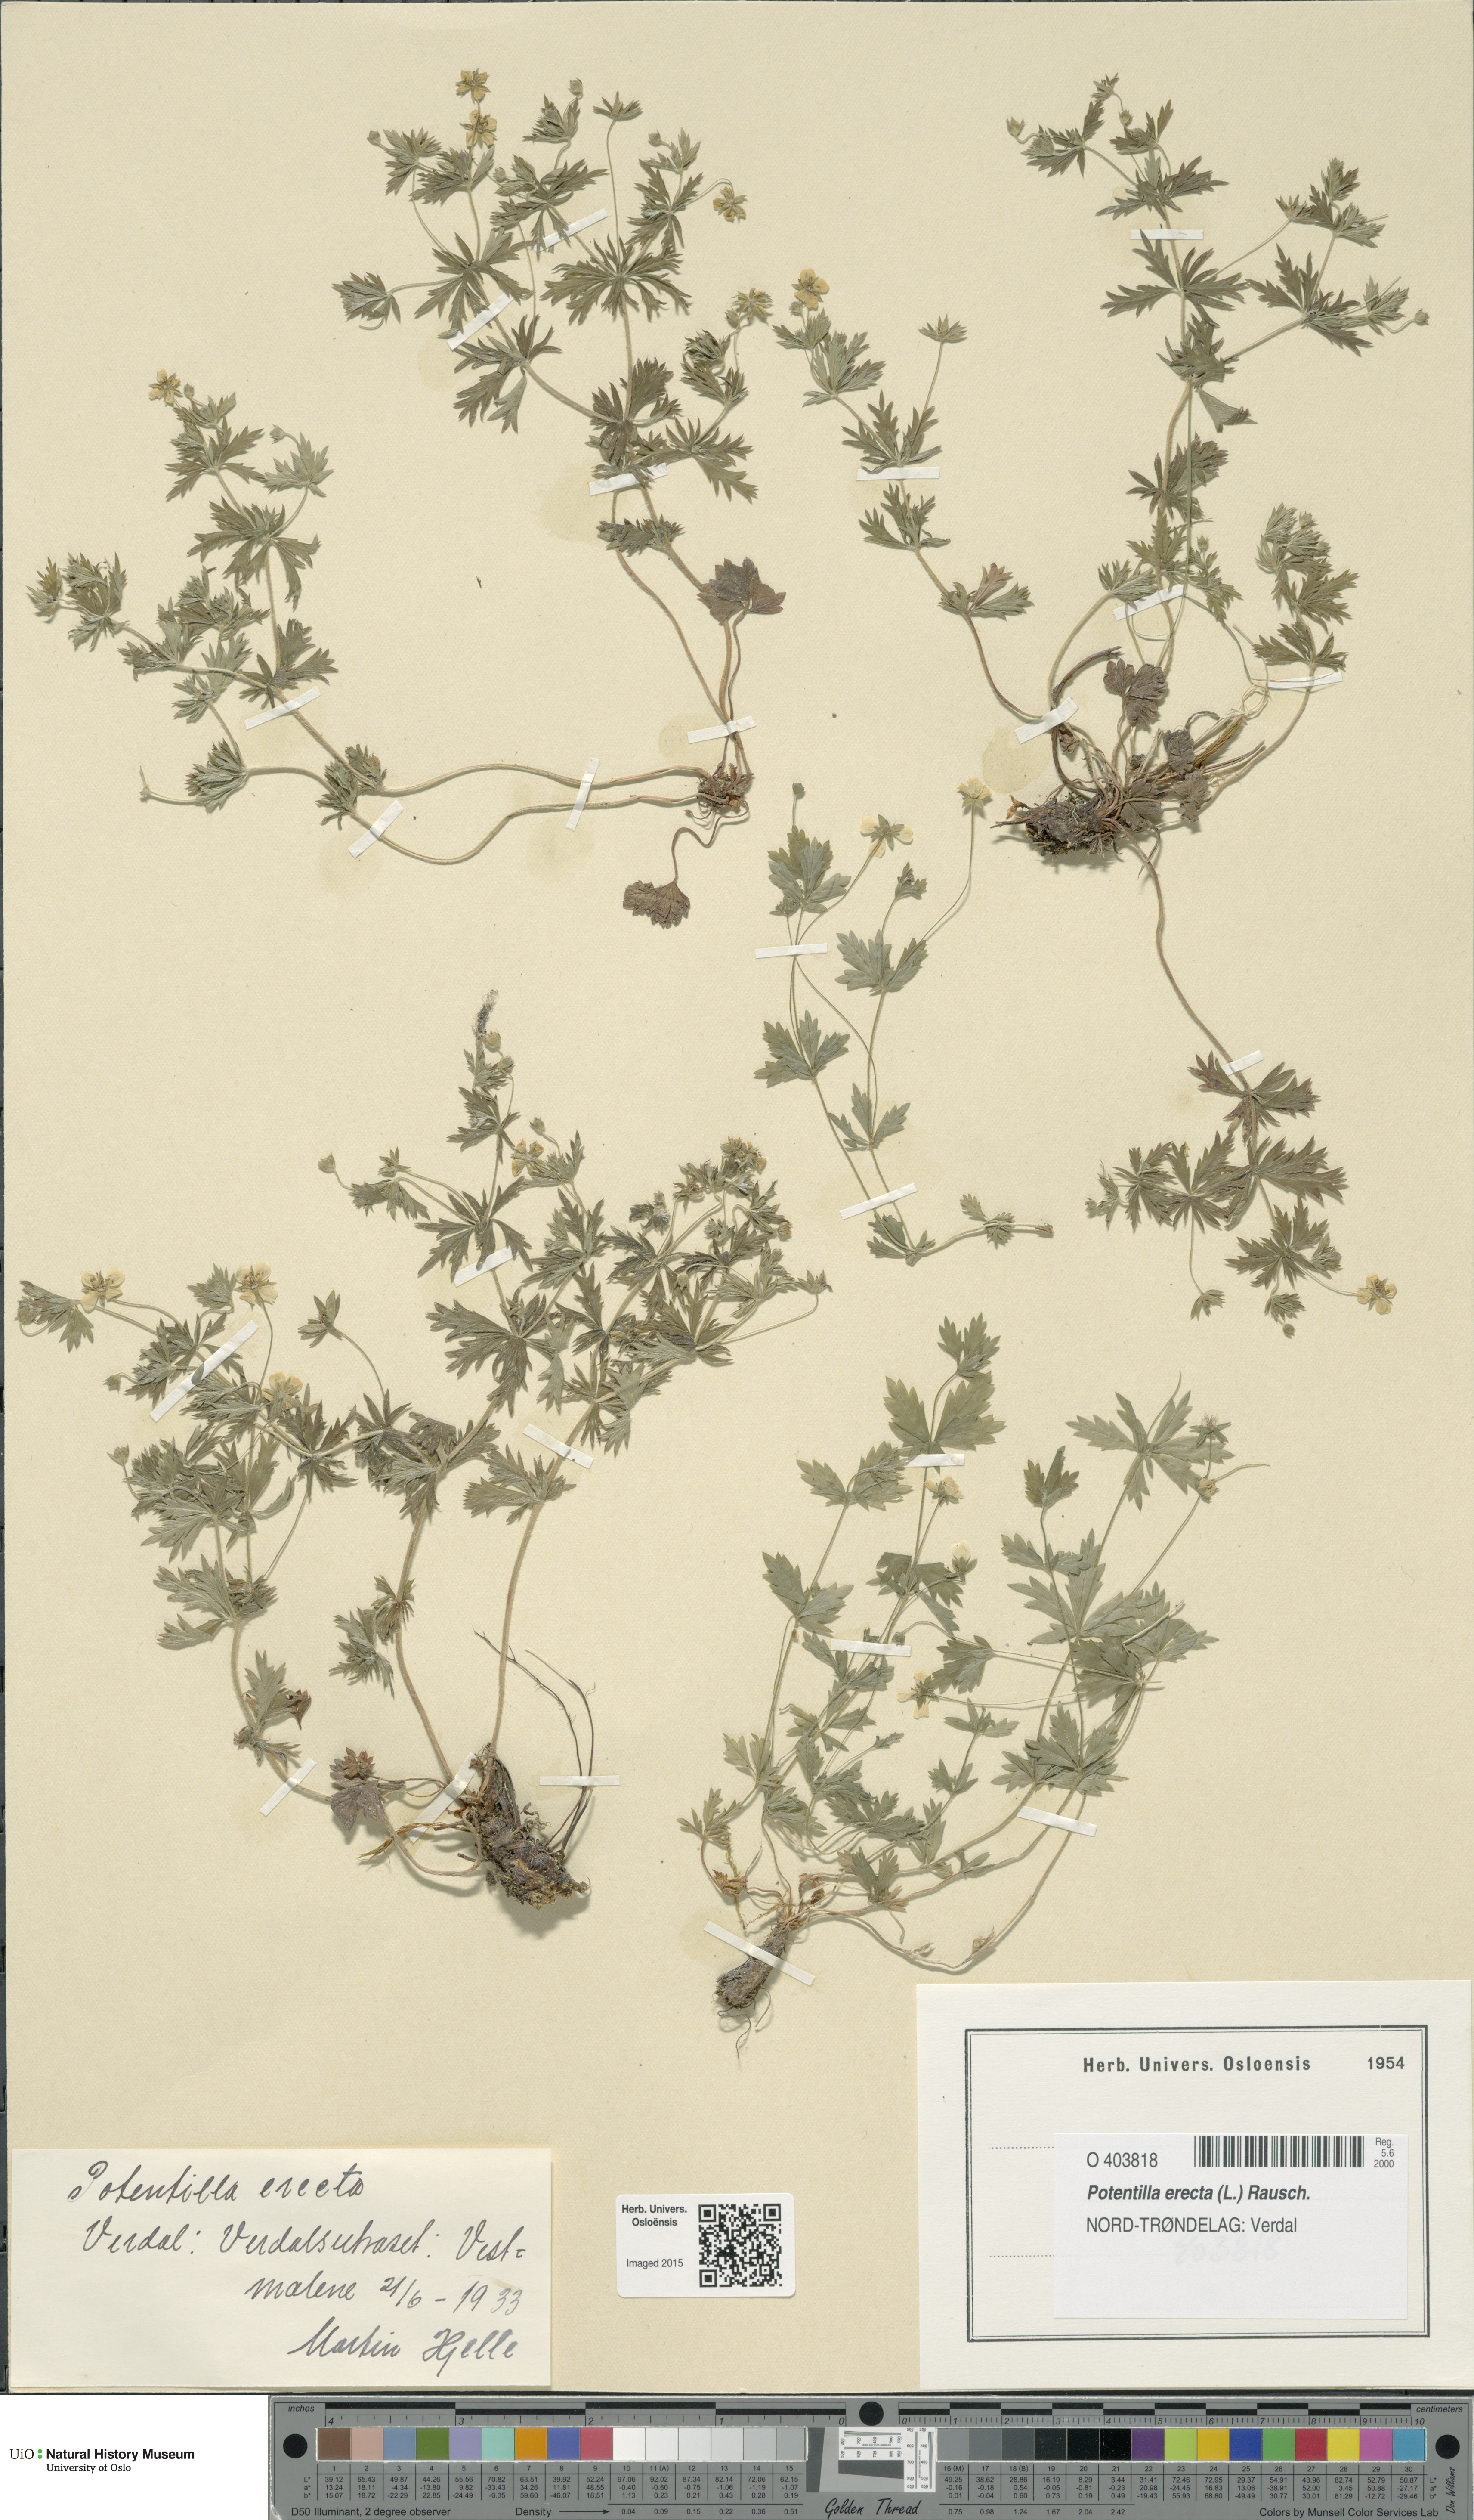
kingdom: Plantae
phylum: Tracheophyta
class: Magnoliopsida
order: Rosales
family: Rosaceae
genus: Potentilla
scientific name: Potentilla erecta
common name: Tormentil
